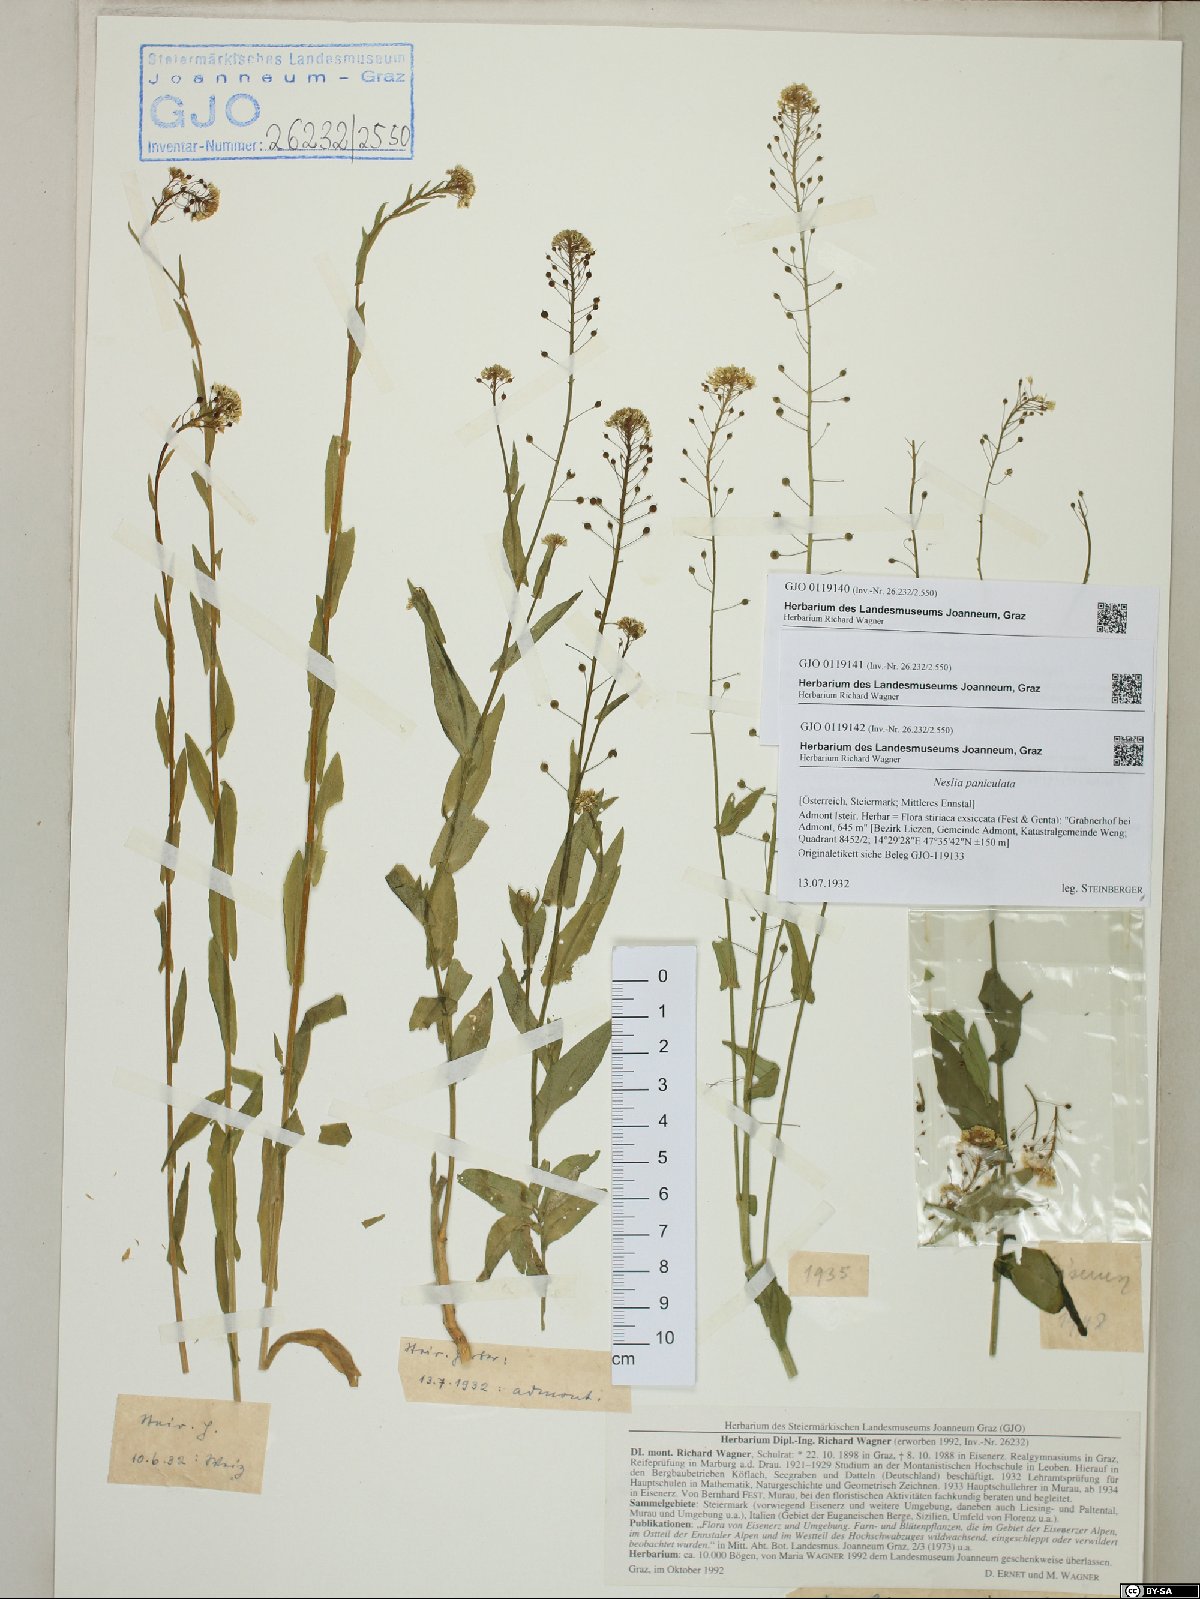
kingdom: Plantae
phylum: Tracheophyta
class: Magnoliopsida
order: Brassicales
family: Brassicaceae
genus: Neslia
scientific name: Neslia paniculata
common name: Ball mustard
